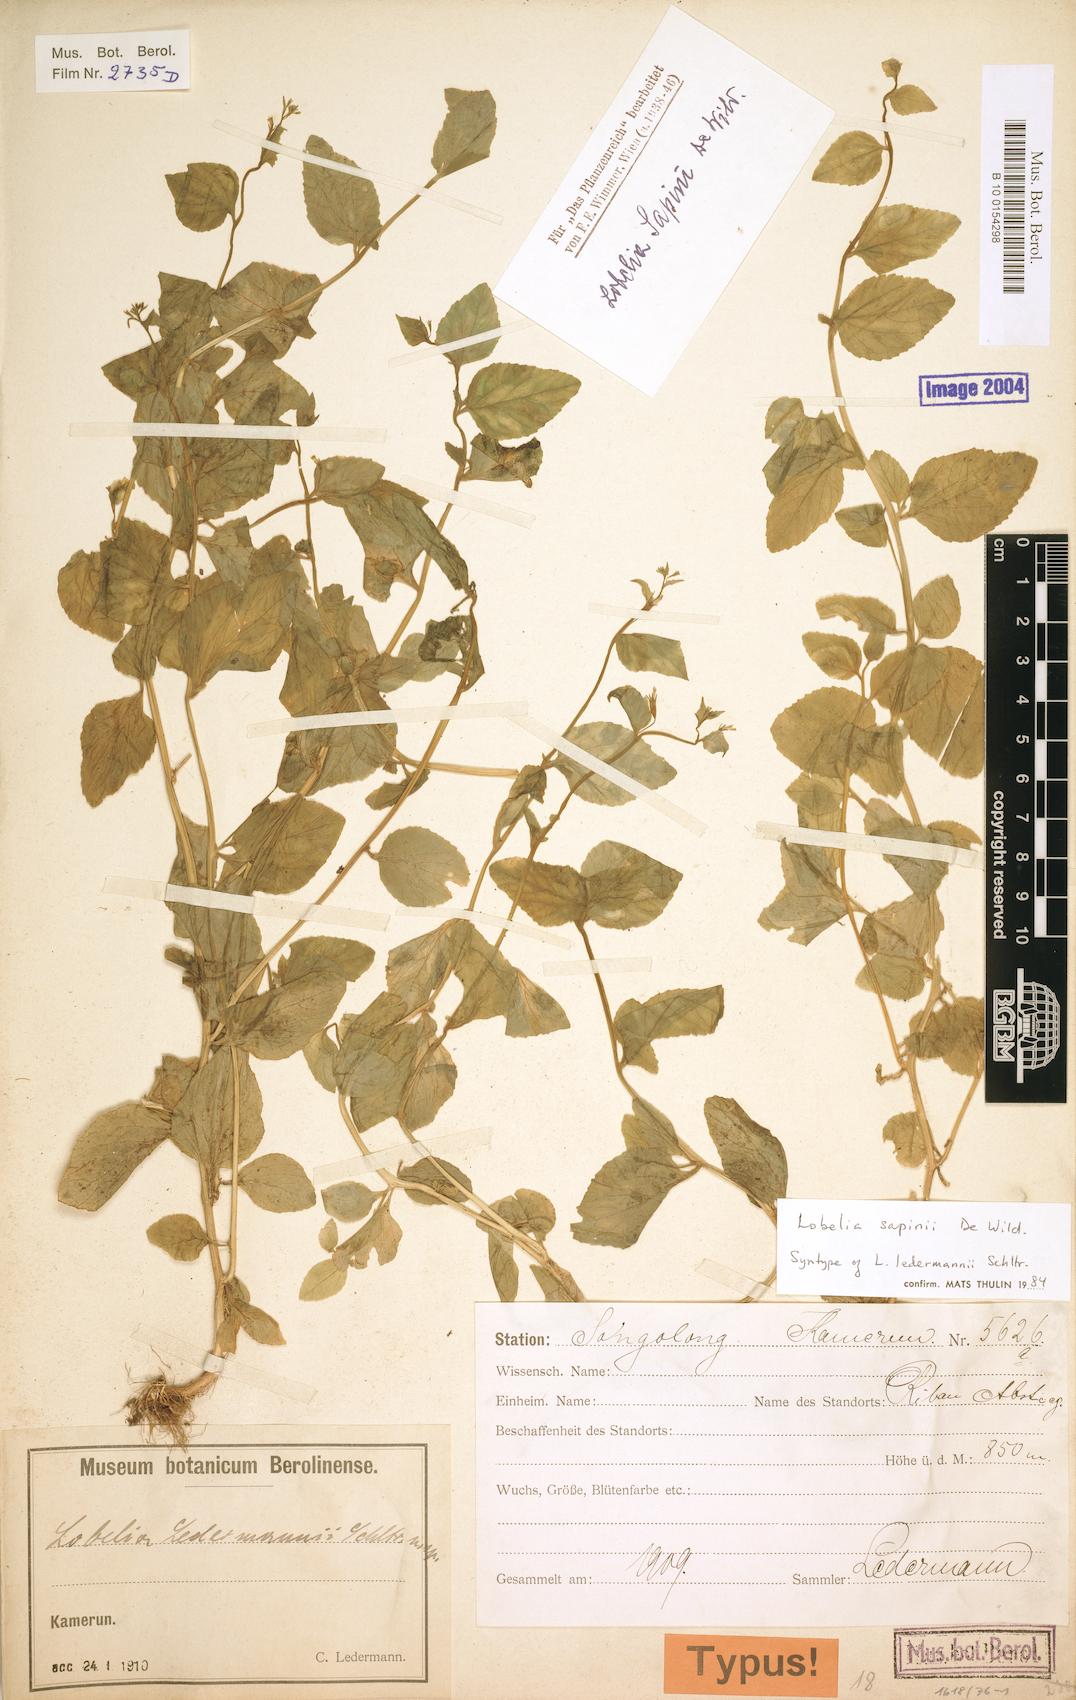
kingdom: Plantae
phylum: Tracheophyta
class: Magnoliopsida
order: Asterales
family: Campanulaceae
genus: Lobelia
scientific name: Lobelia sapinii
